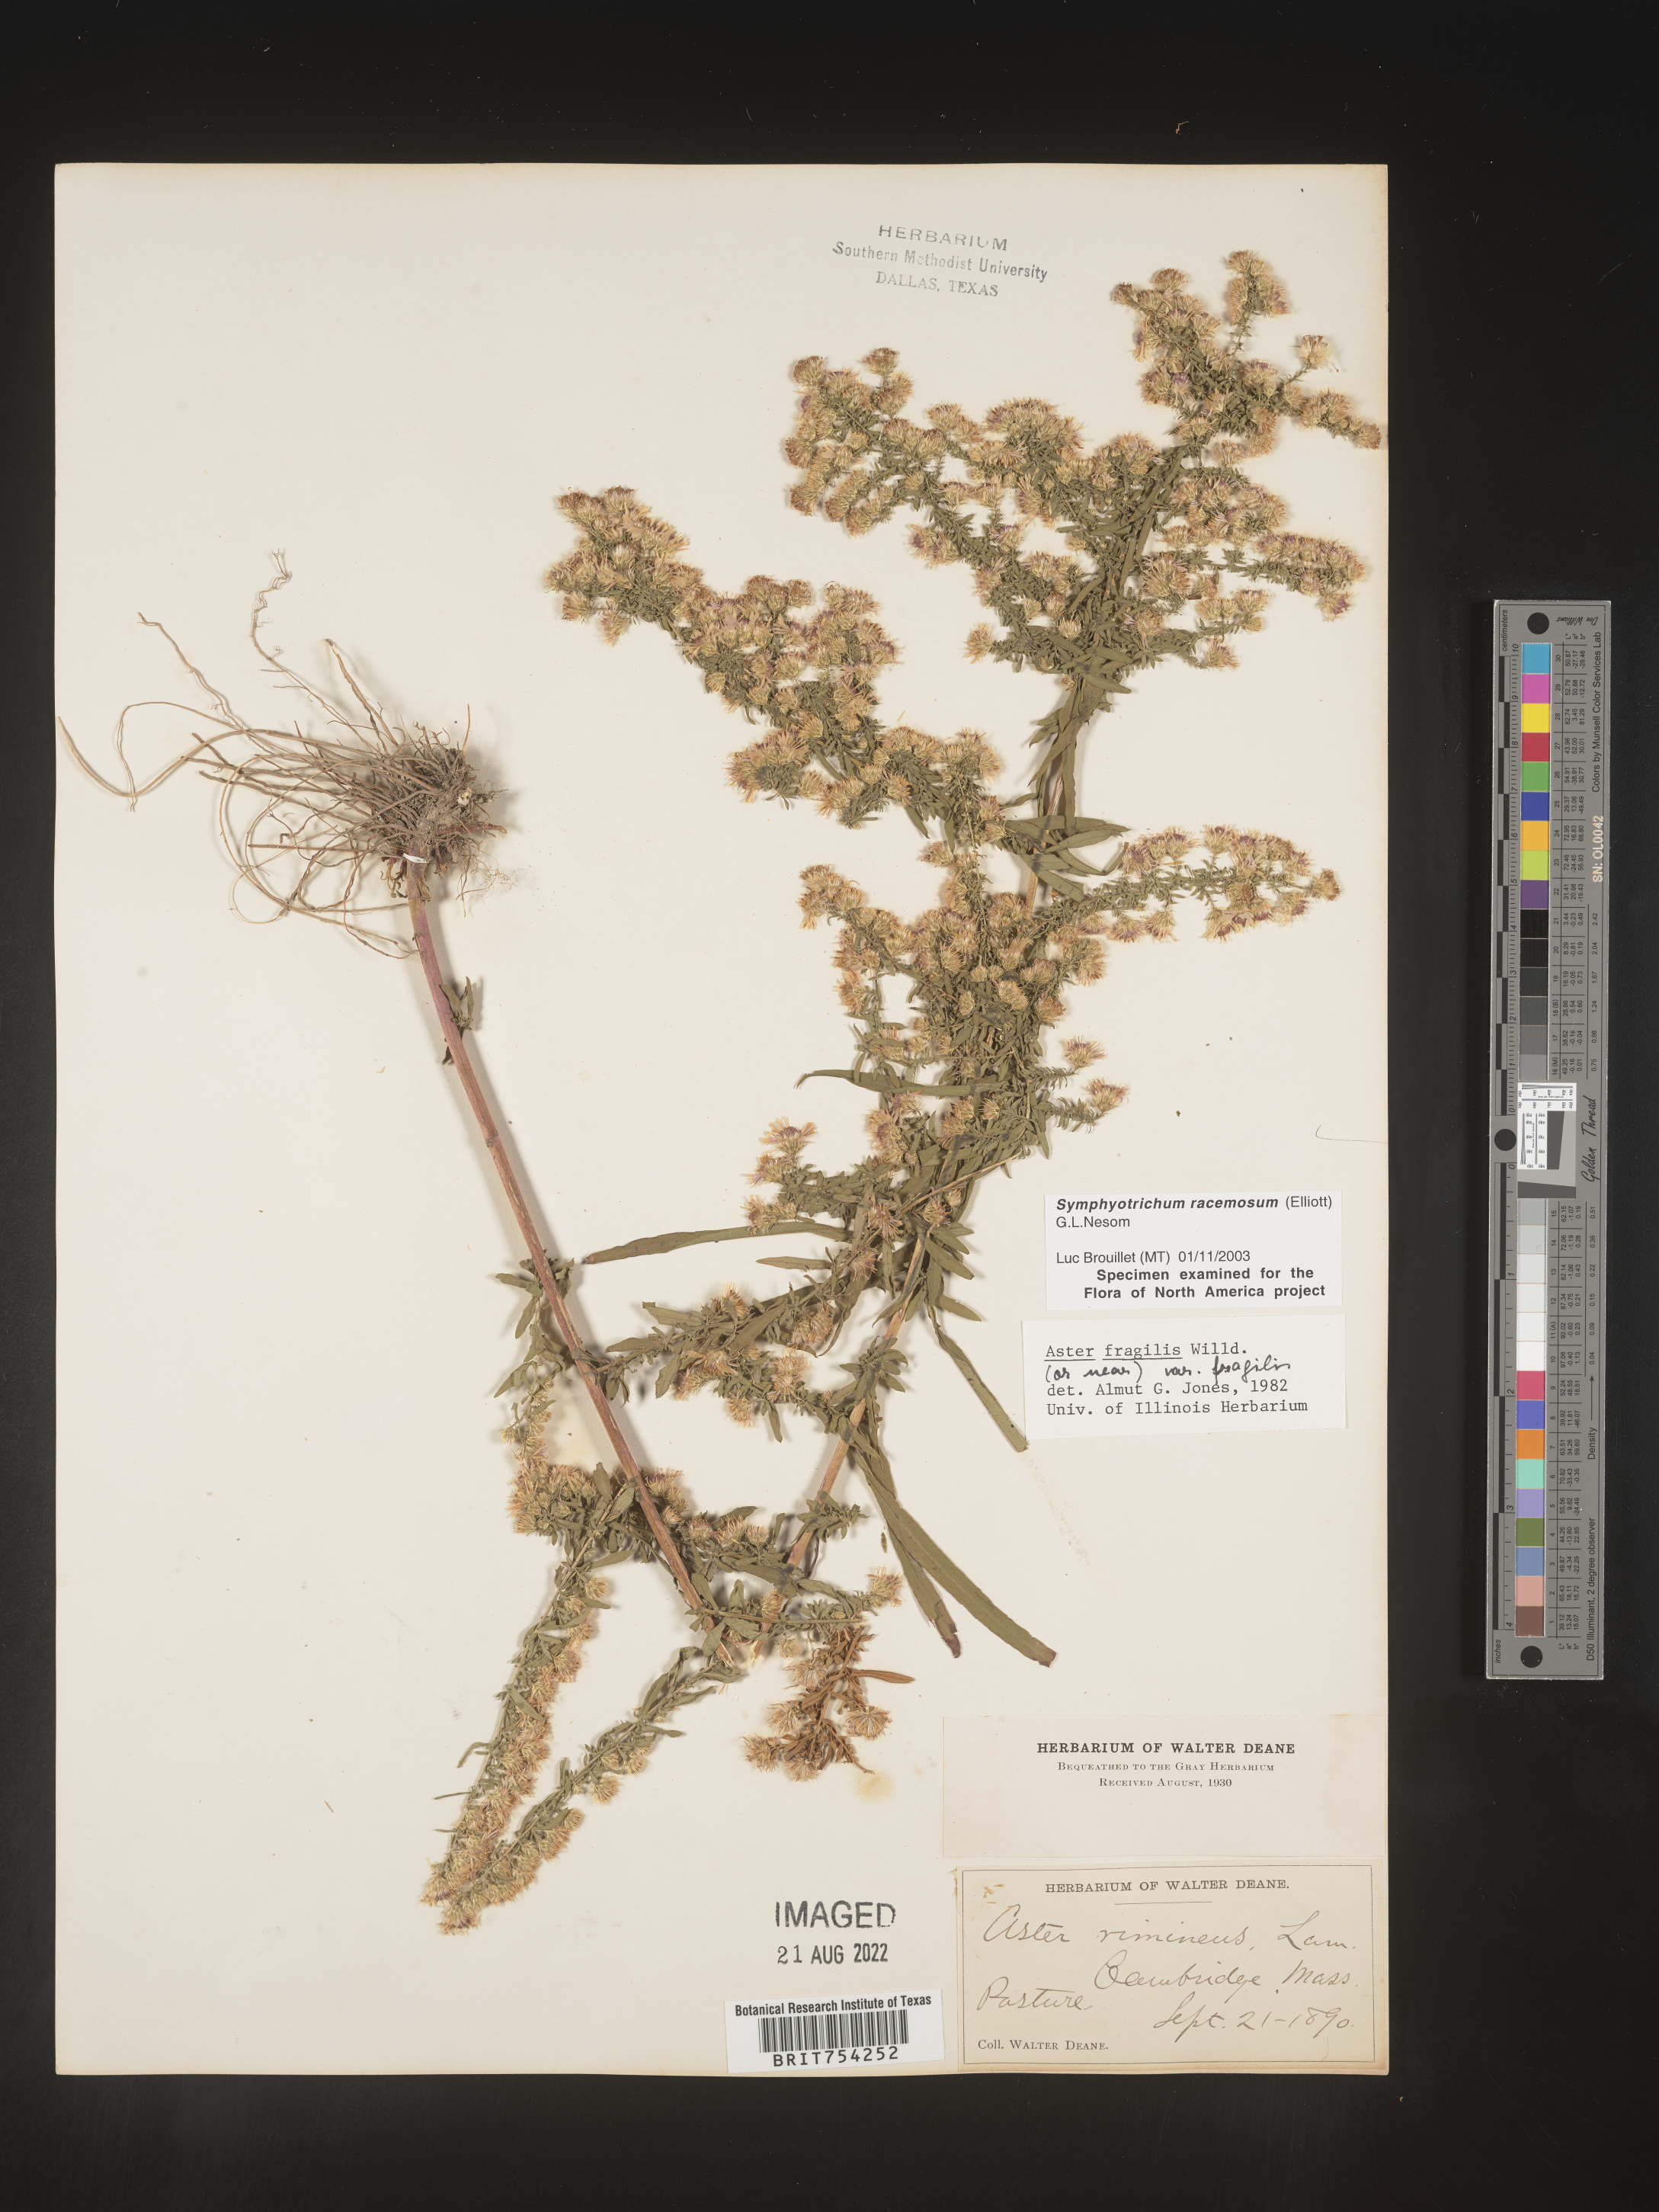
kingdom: Plantae
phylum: Tracheophyta
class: Magnoliopsida
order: Asterales
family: Asteraceae
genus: Symphyotrichum
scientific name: Symphyotrichum racemosum
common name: Small white aster
